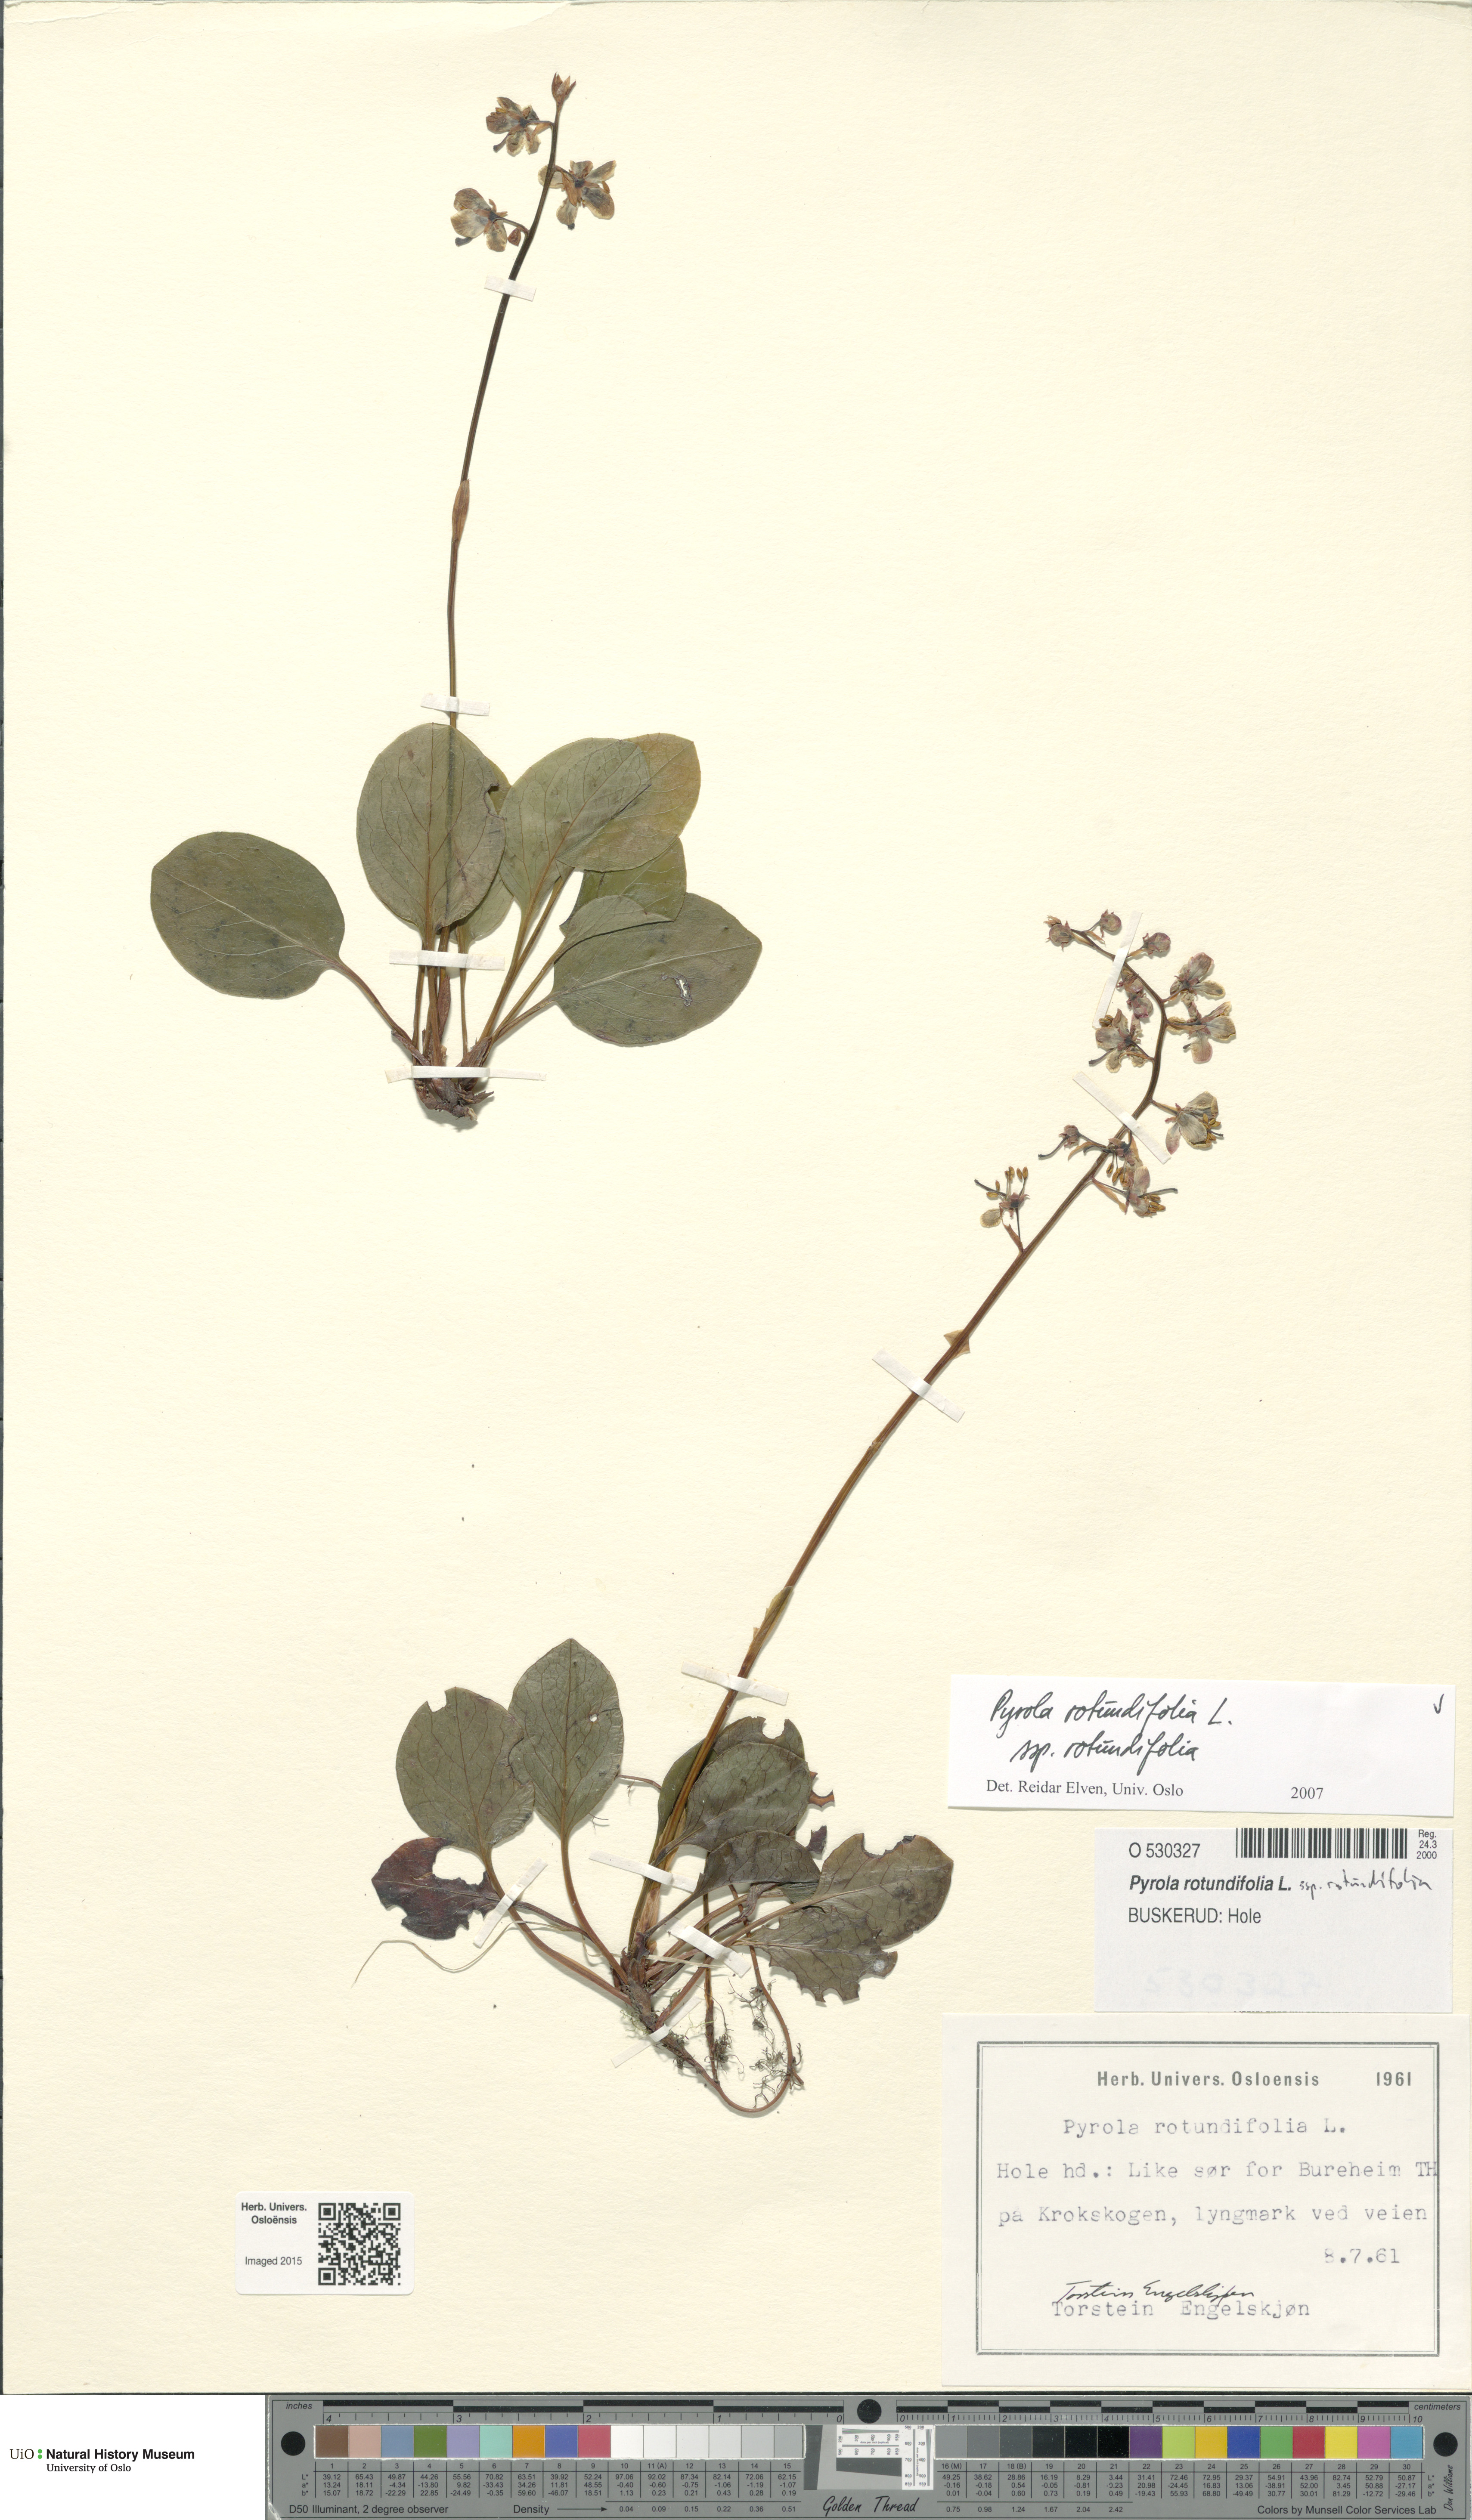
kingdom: Plantae
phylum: Tracheophyta
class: Magnoliopsida
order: Ericales
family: Ericaceae
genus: Pyrola
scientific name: Pyrola rotundifolia
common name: Round-leaved wintergreen
